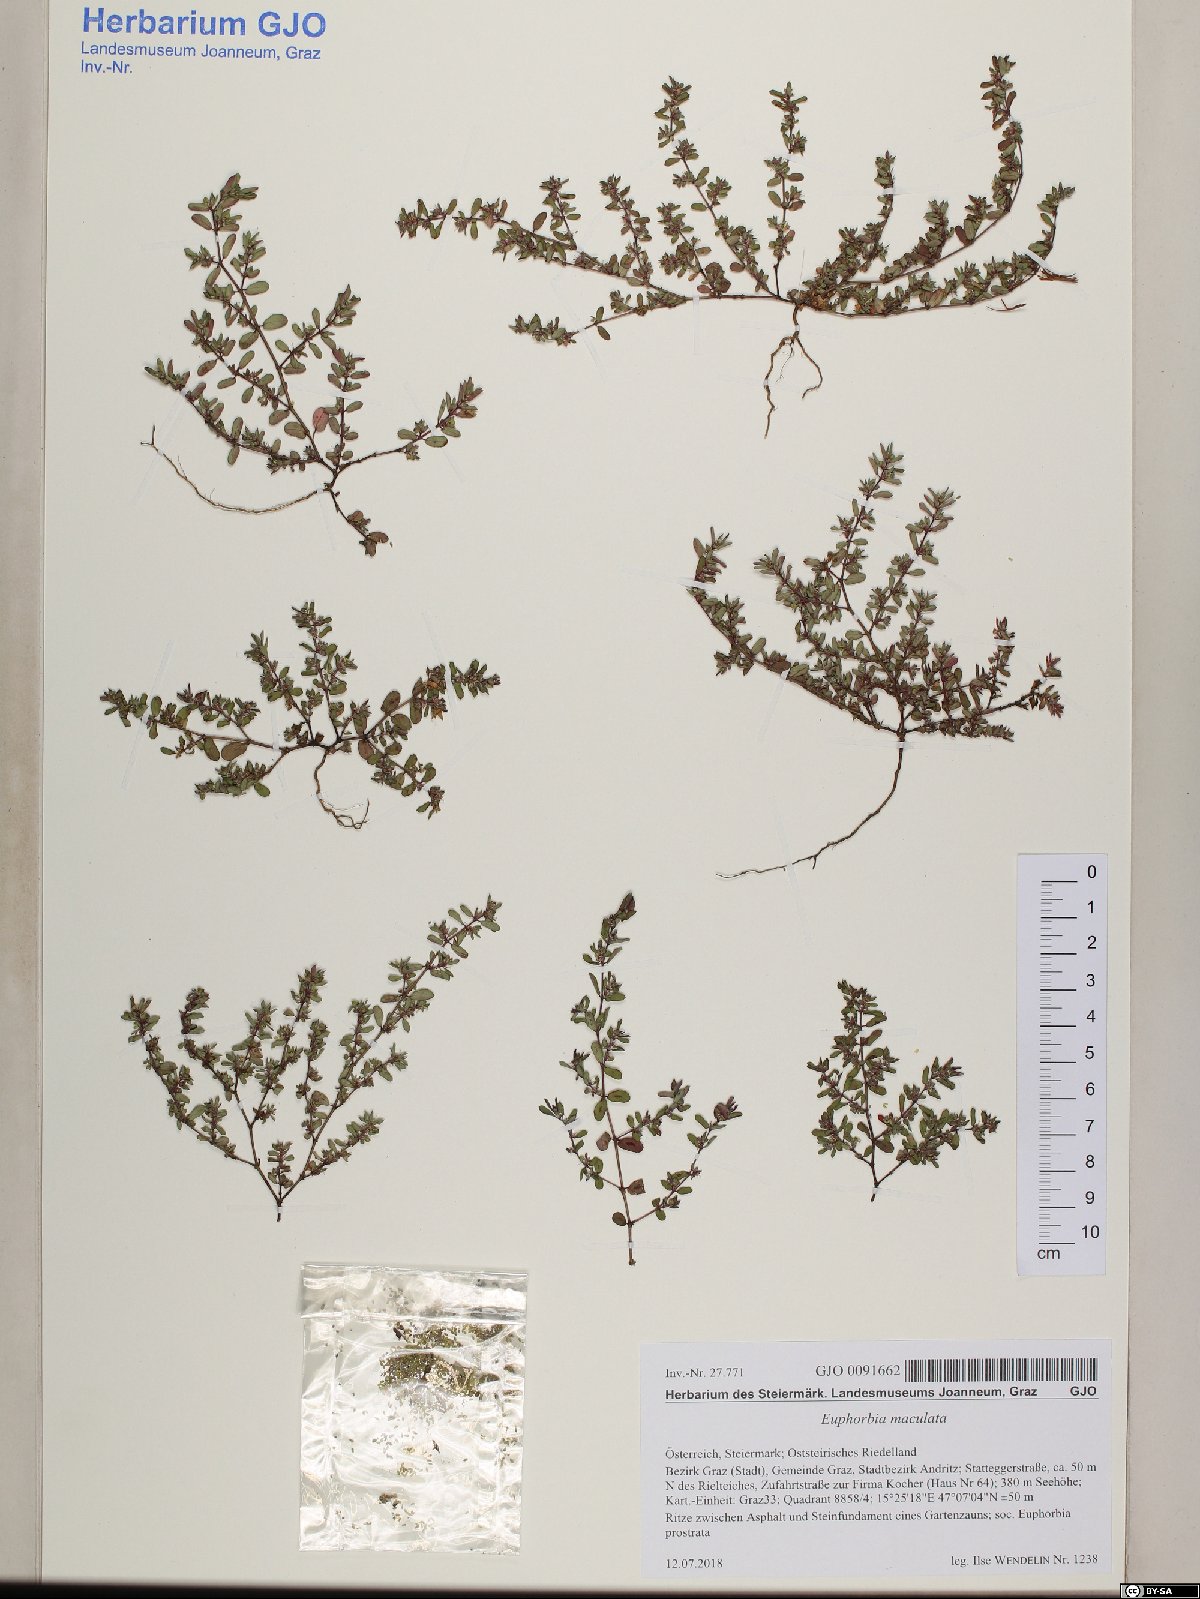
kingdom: Plantae
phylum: Tracheophyta
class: Magnoliopsida
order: Malpighiales
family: Euphorbiaceae
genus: Euphorbia
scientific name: Euphorbia maculata
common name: Spotted spurge
